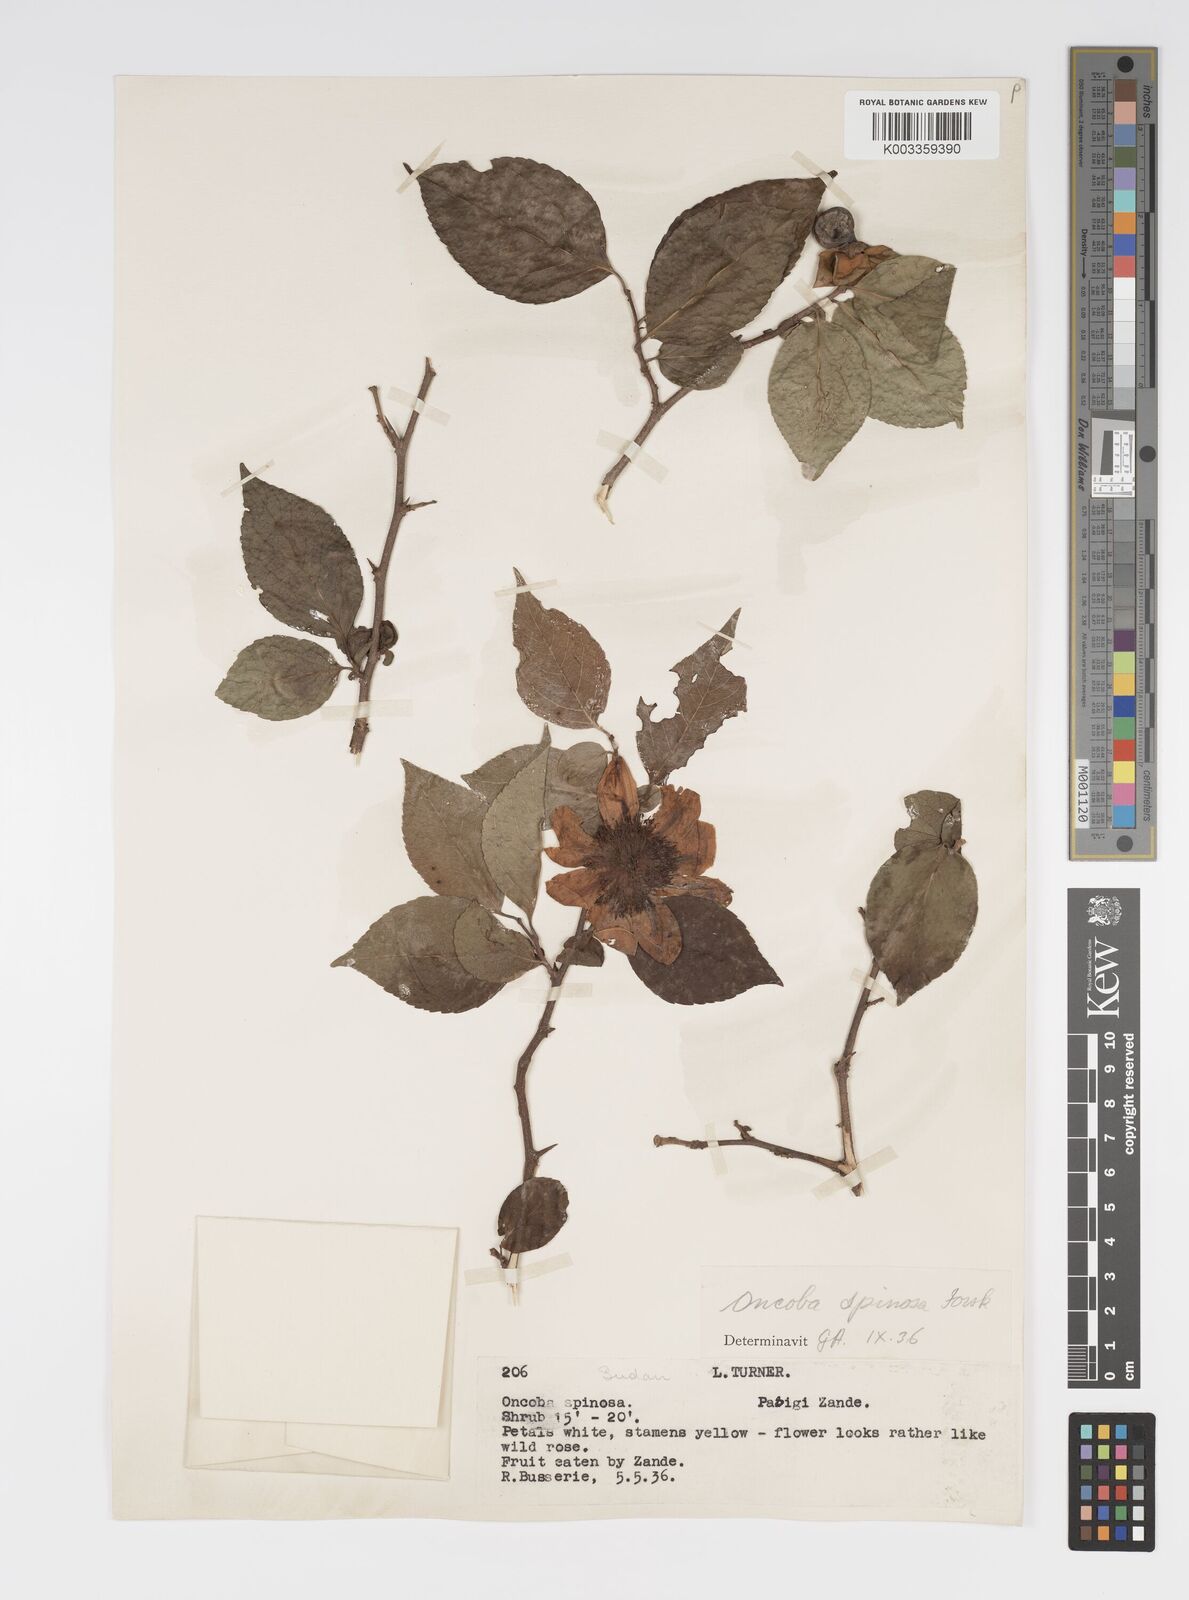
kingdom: Plantae
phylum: Tracheophyta
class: Magnoliopsida
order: Malpighiales
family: Salicaceae
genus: Oncoba
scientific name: Oncoba spinosa
